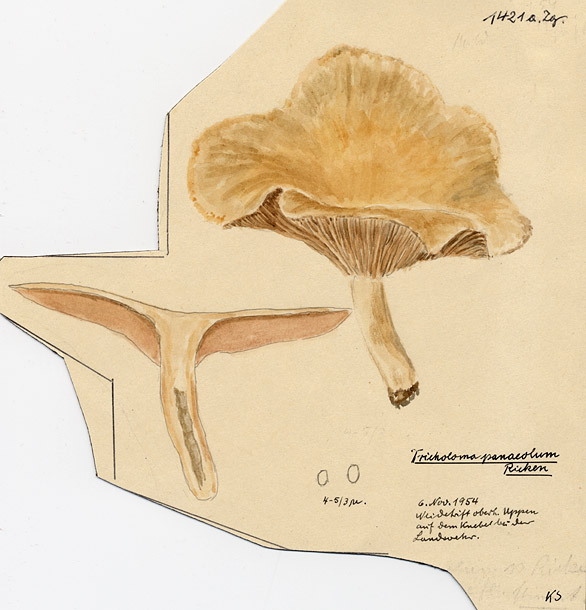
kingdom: Fungi
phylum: Basidiomycota
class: Agaricomycetes
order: Agaricales
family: Tricholomataceae
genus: Lepista
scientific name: Lepista luscina
